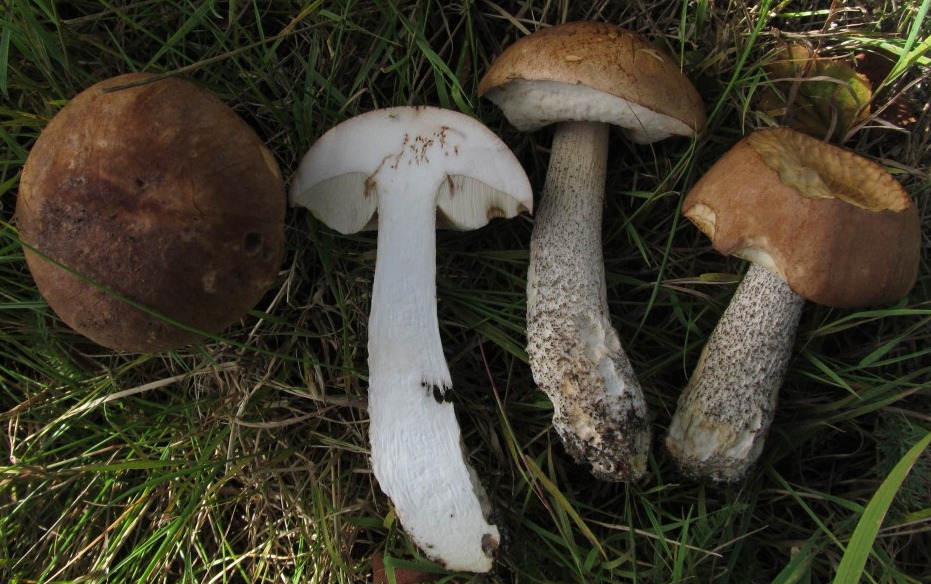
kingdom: Fungi
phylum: Basidiomycota
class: Agaricomycetes
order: Boletales
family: Boletaceae
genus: Leccinum
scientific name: Leccinum scabrum
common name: brun skælrørhat
